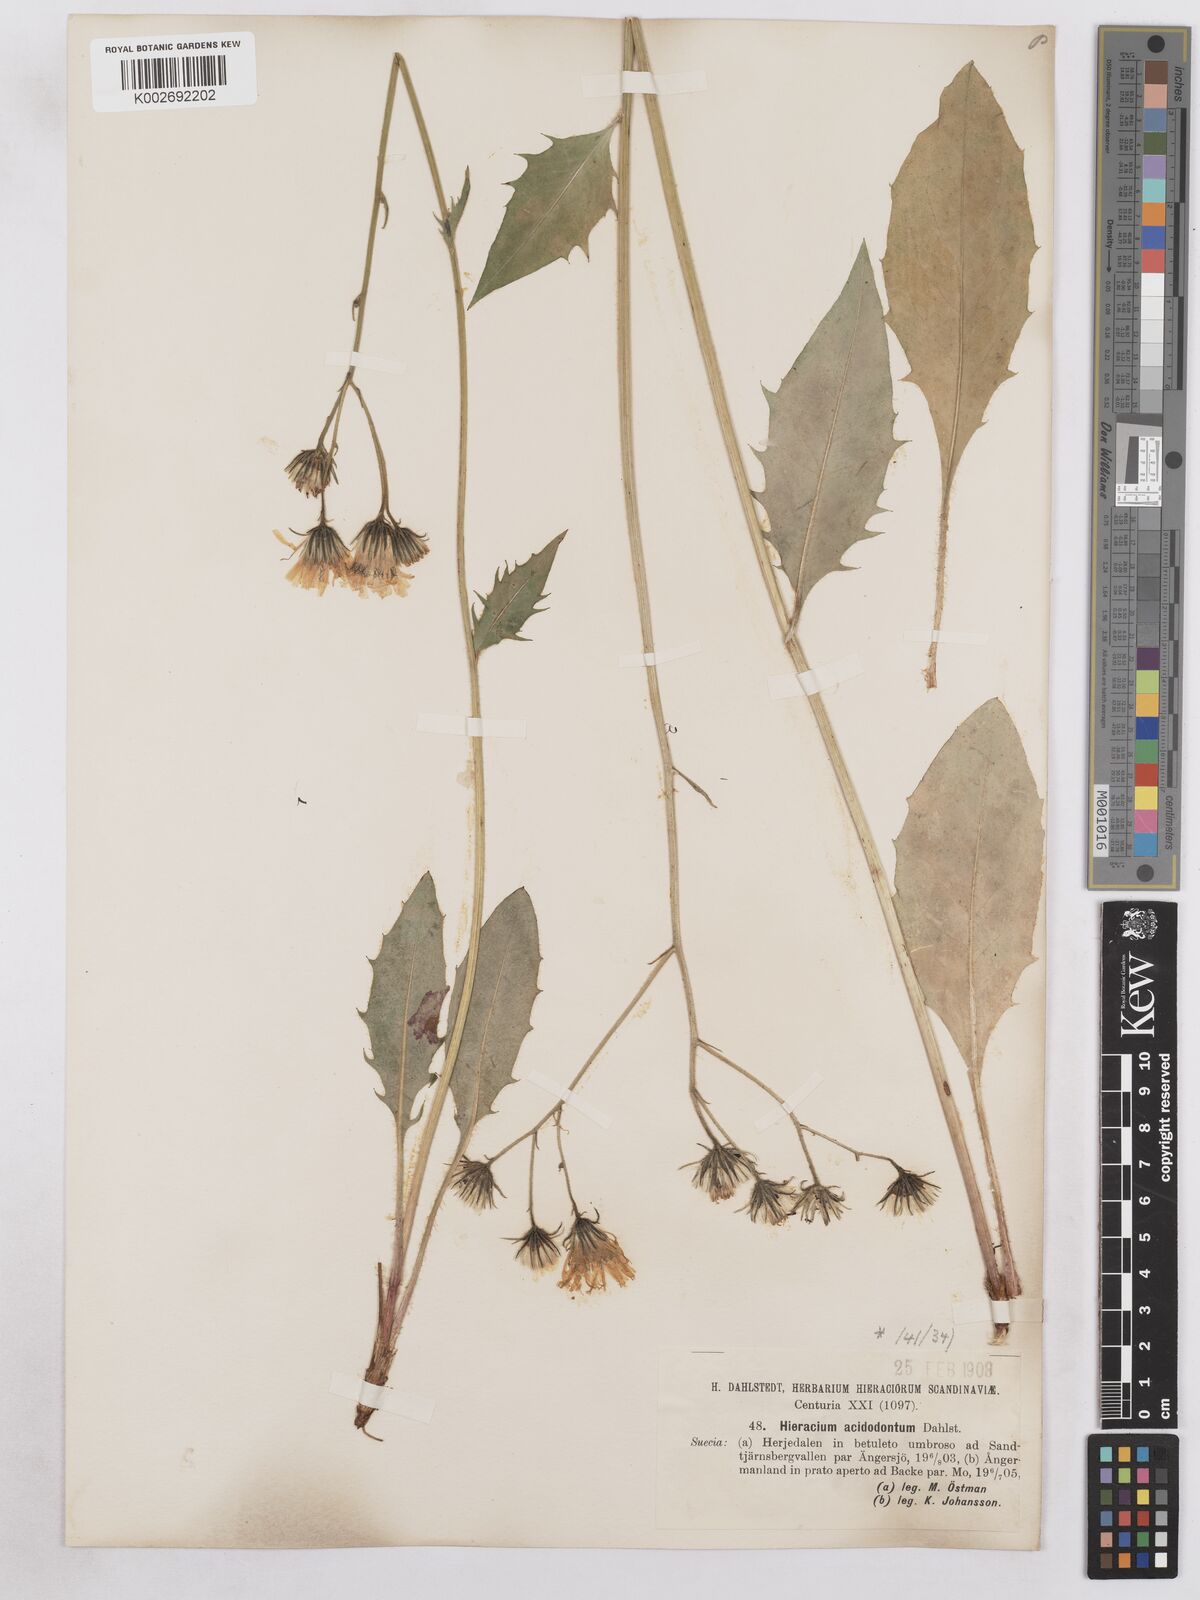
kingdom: Plantae
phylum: Tracheophyta
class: Magnoliopsida
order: Asterales
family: Asteraceae
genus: Hieracium
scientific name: Hieracium diaphanoides
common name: Fine-bracted hawkweed
